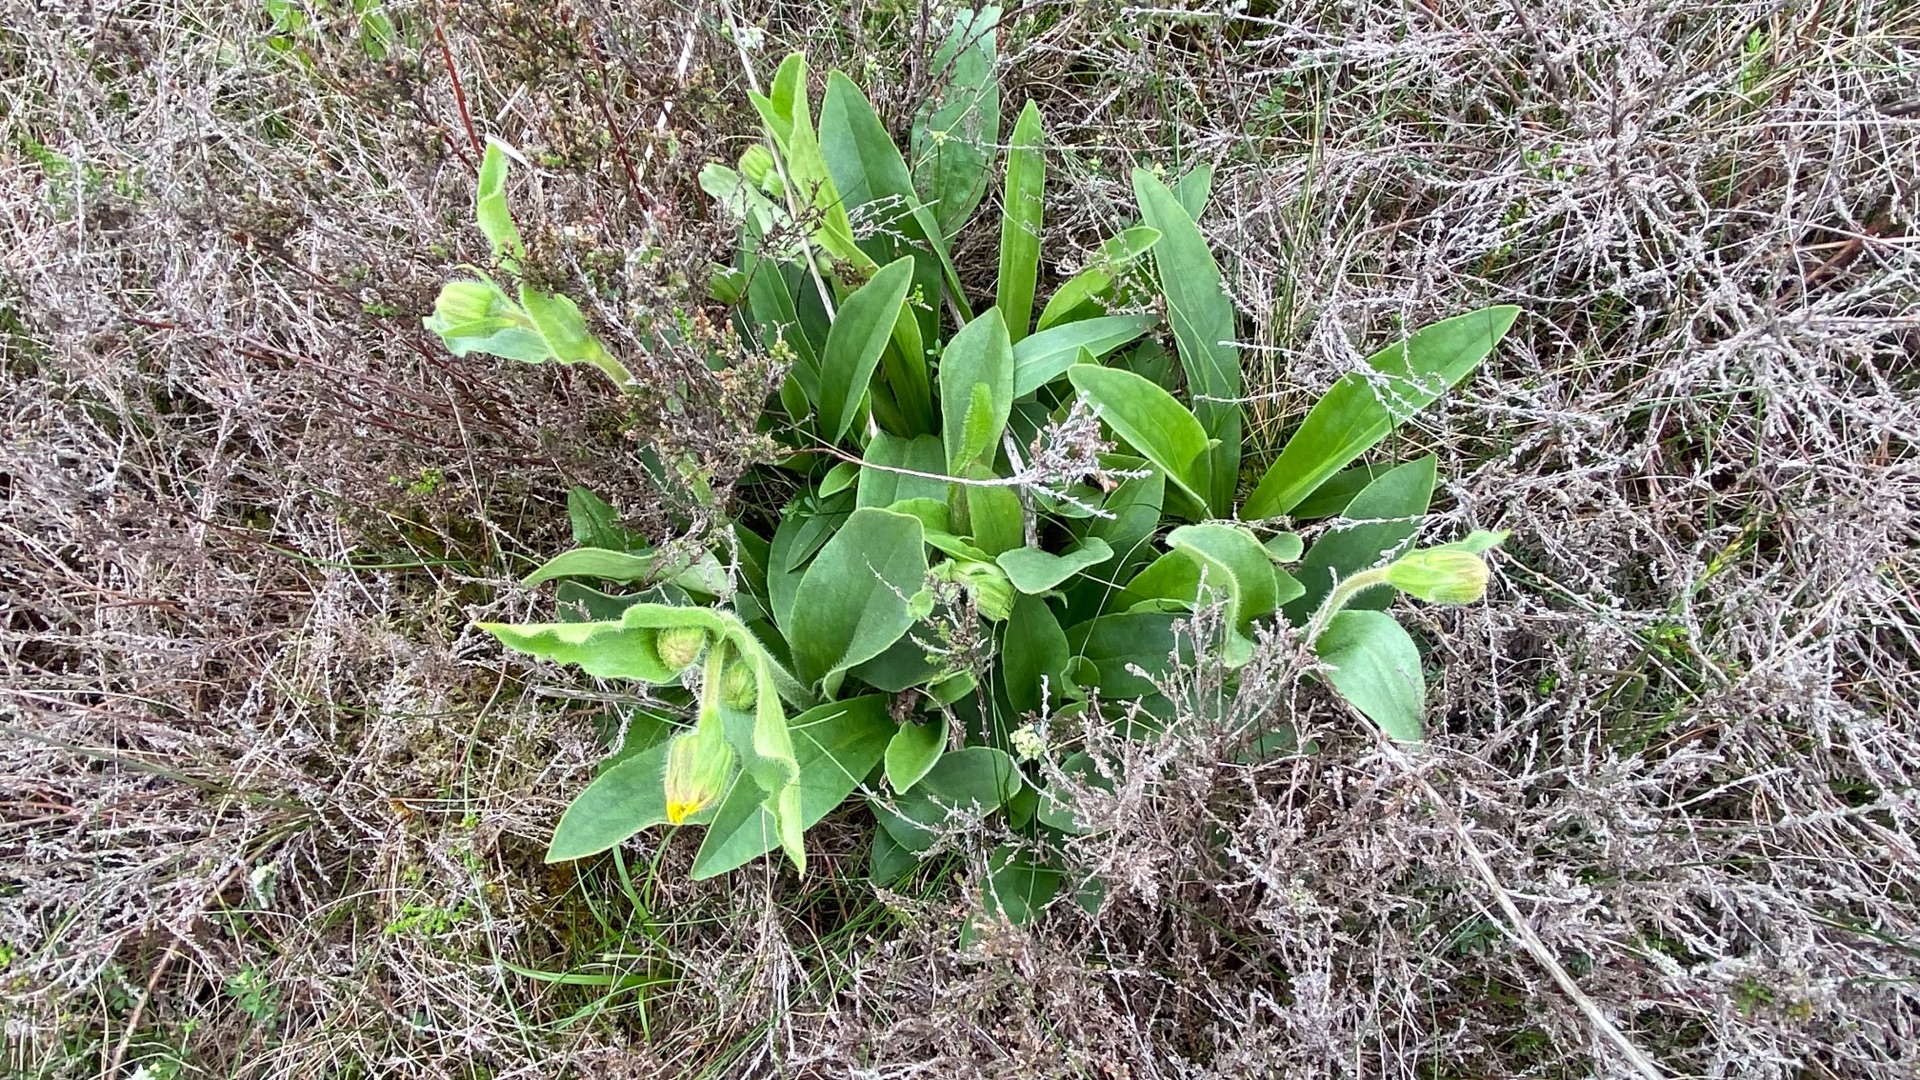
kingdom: Plantae
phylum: Tracheophyta
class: Magnoliopsida
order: Asterales
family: Asteraceae
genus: Arnica
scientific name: Arnica montana
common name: Guldblomme
